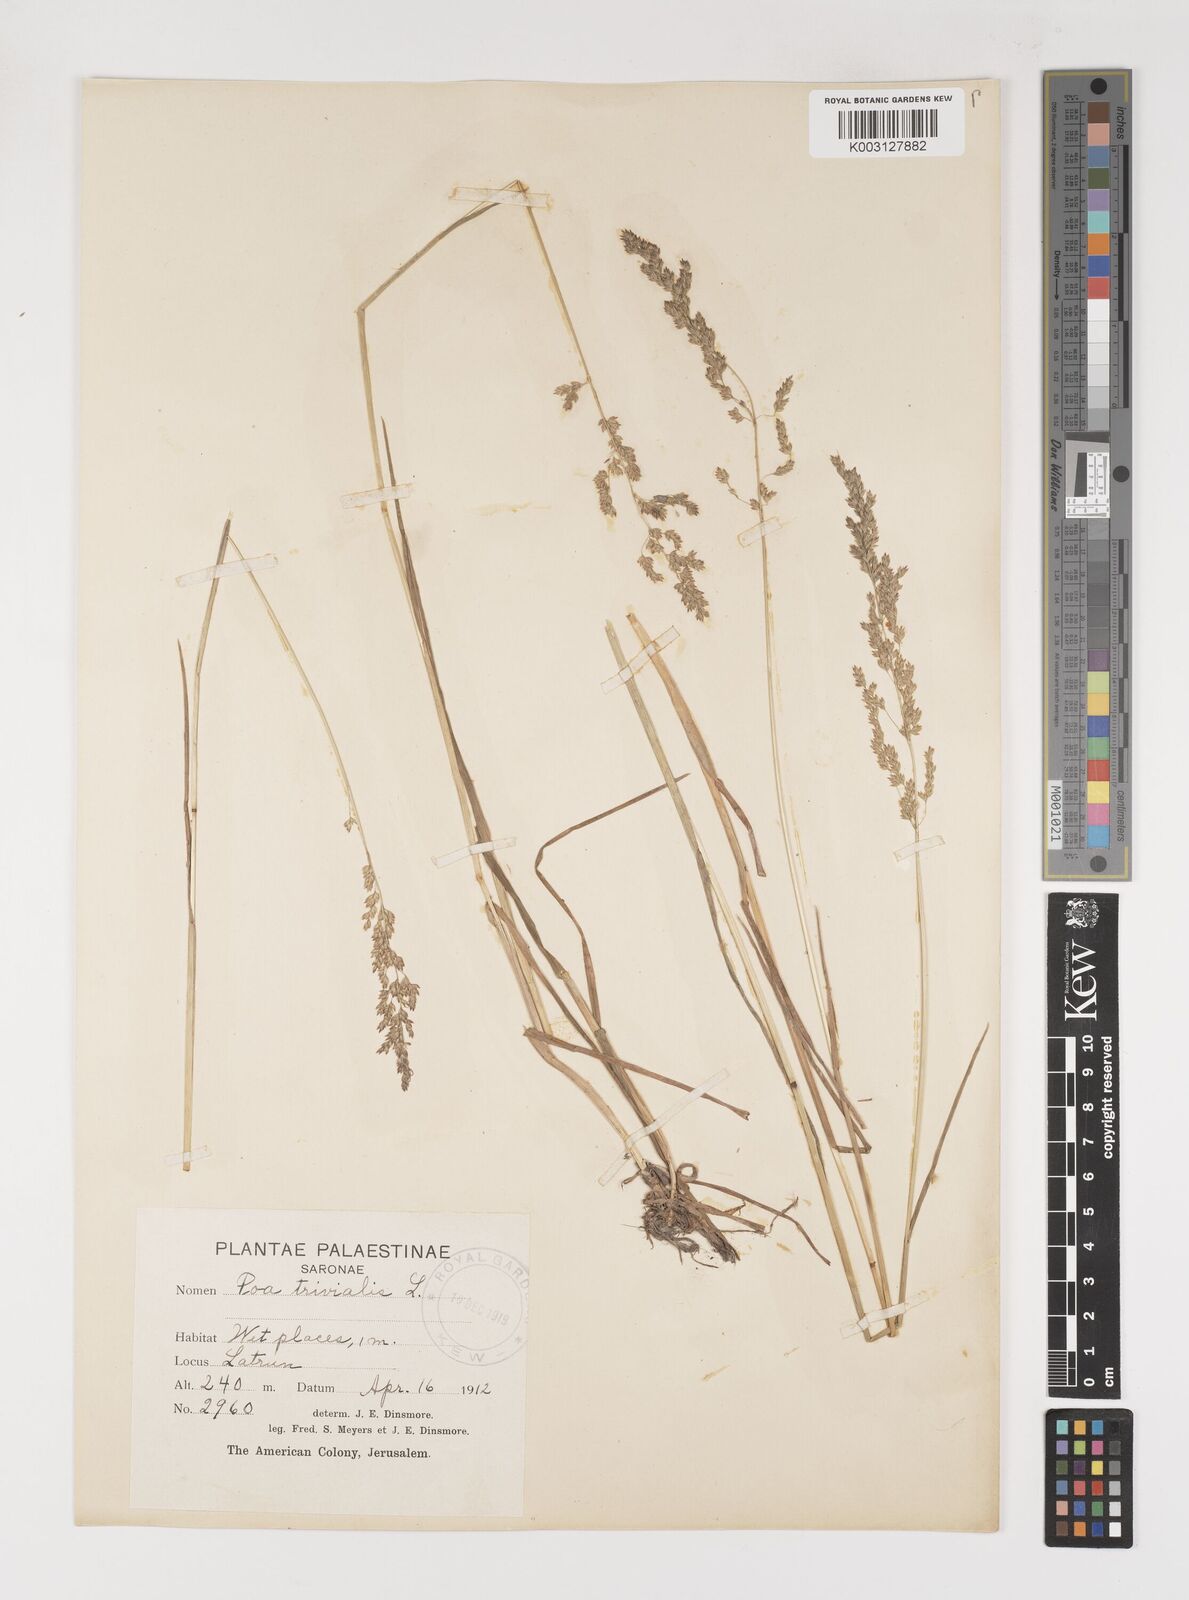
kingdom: Plantae
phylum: Tracheophyta
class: Liliopsida
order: Poales
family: Poaceae
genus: Poa
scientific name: Poa trivialis
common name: Rough bluegrass
